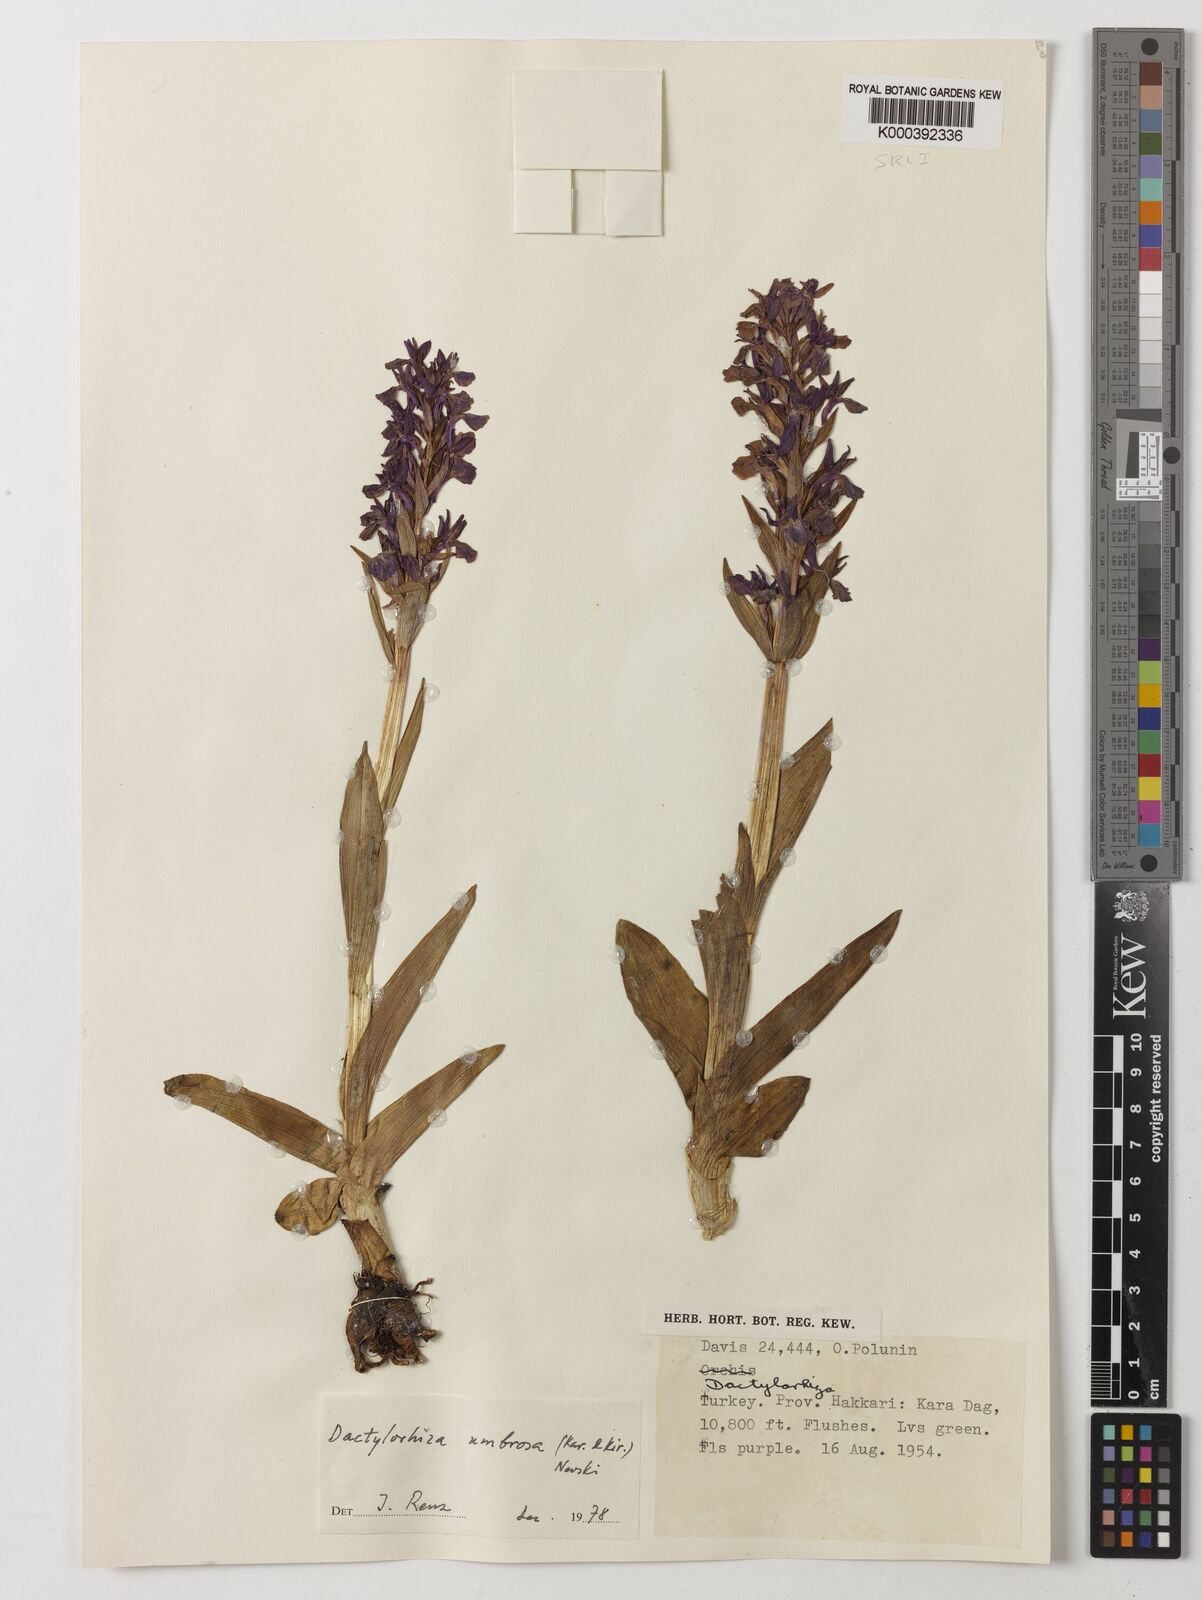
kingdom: Plantae
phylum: Tracheophyta
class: Liliopsida
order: Asparagales
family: Orchidaceae
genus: Dactylorhiza
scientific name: Dactylorhiza
